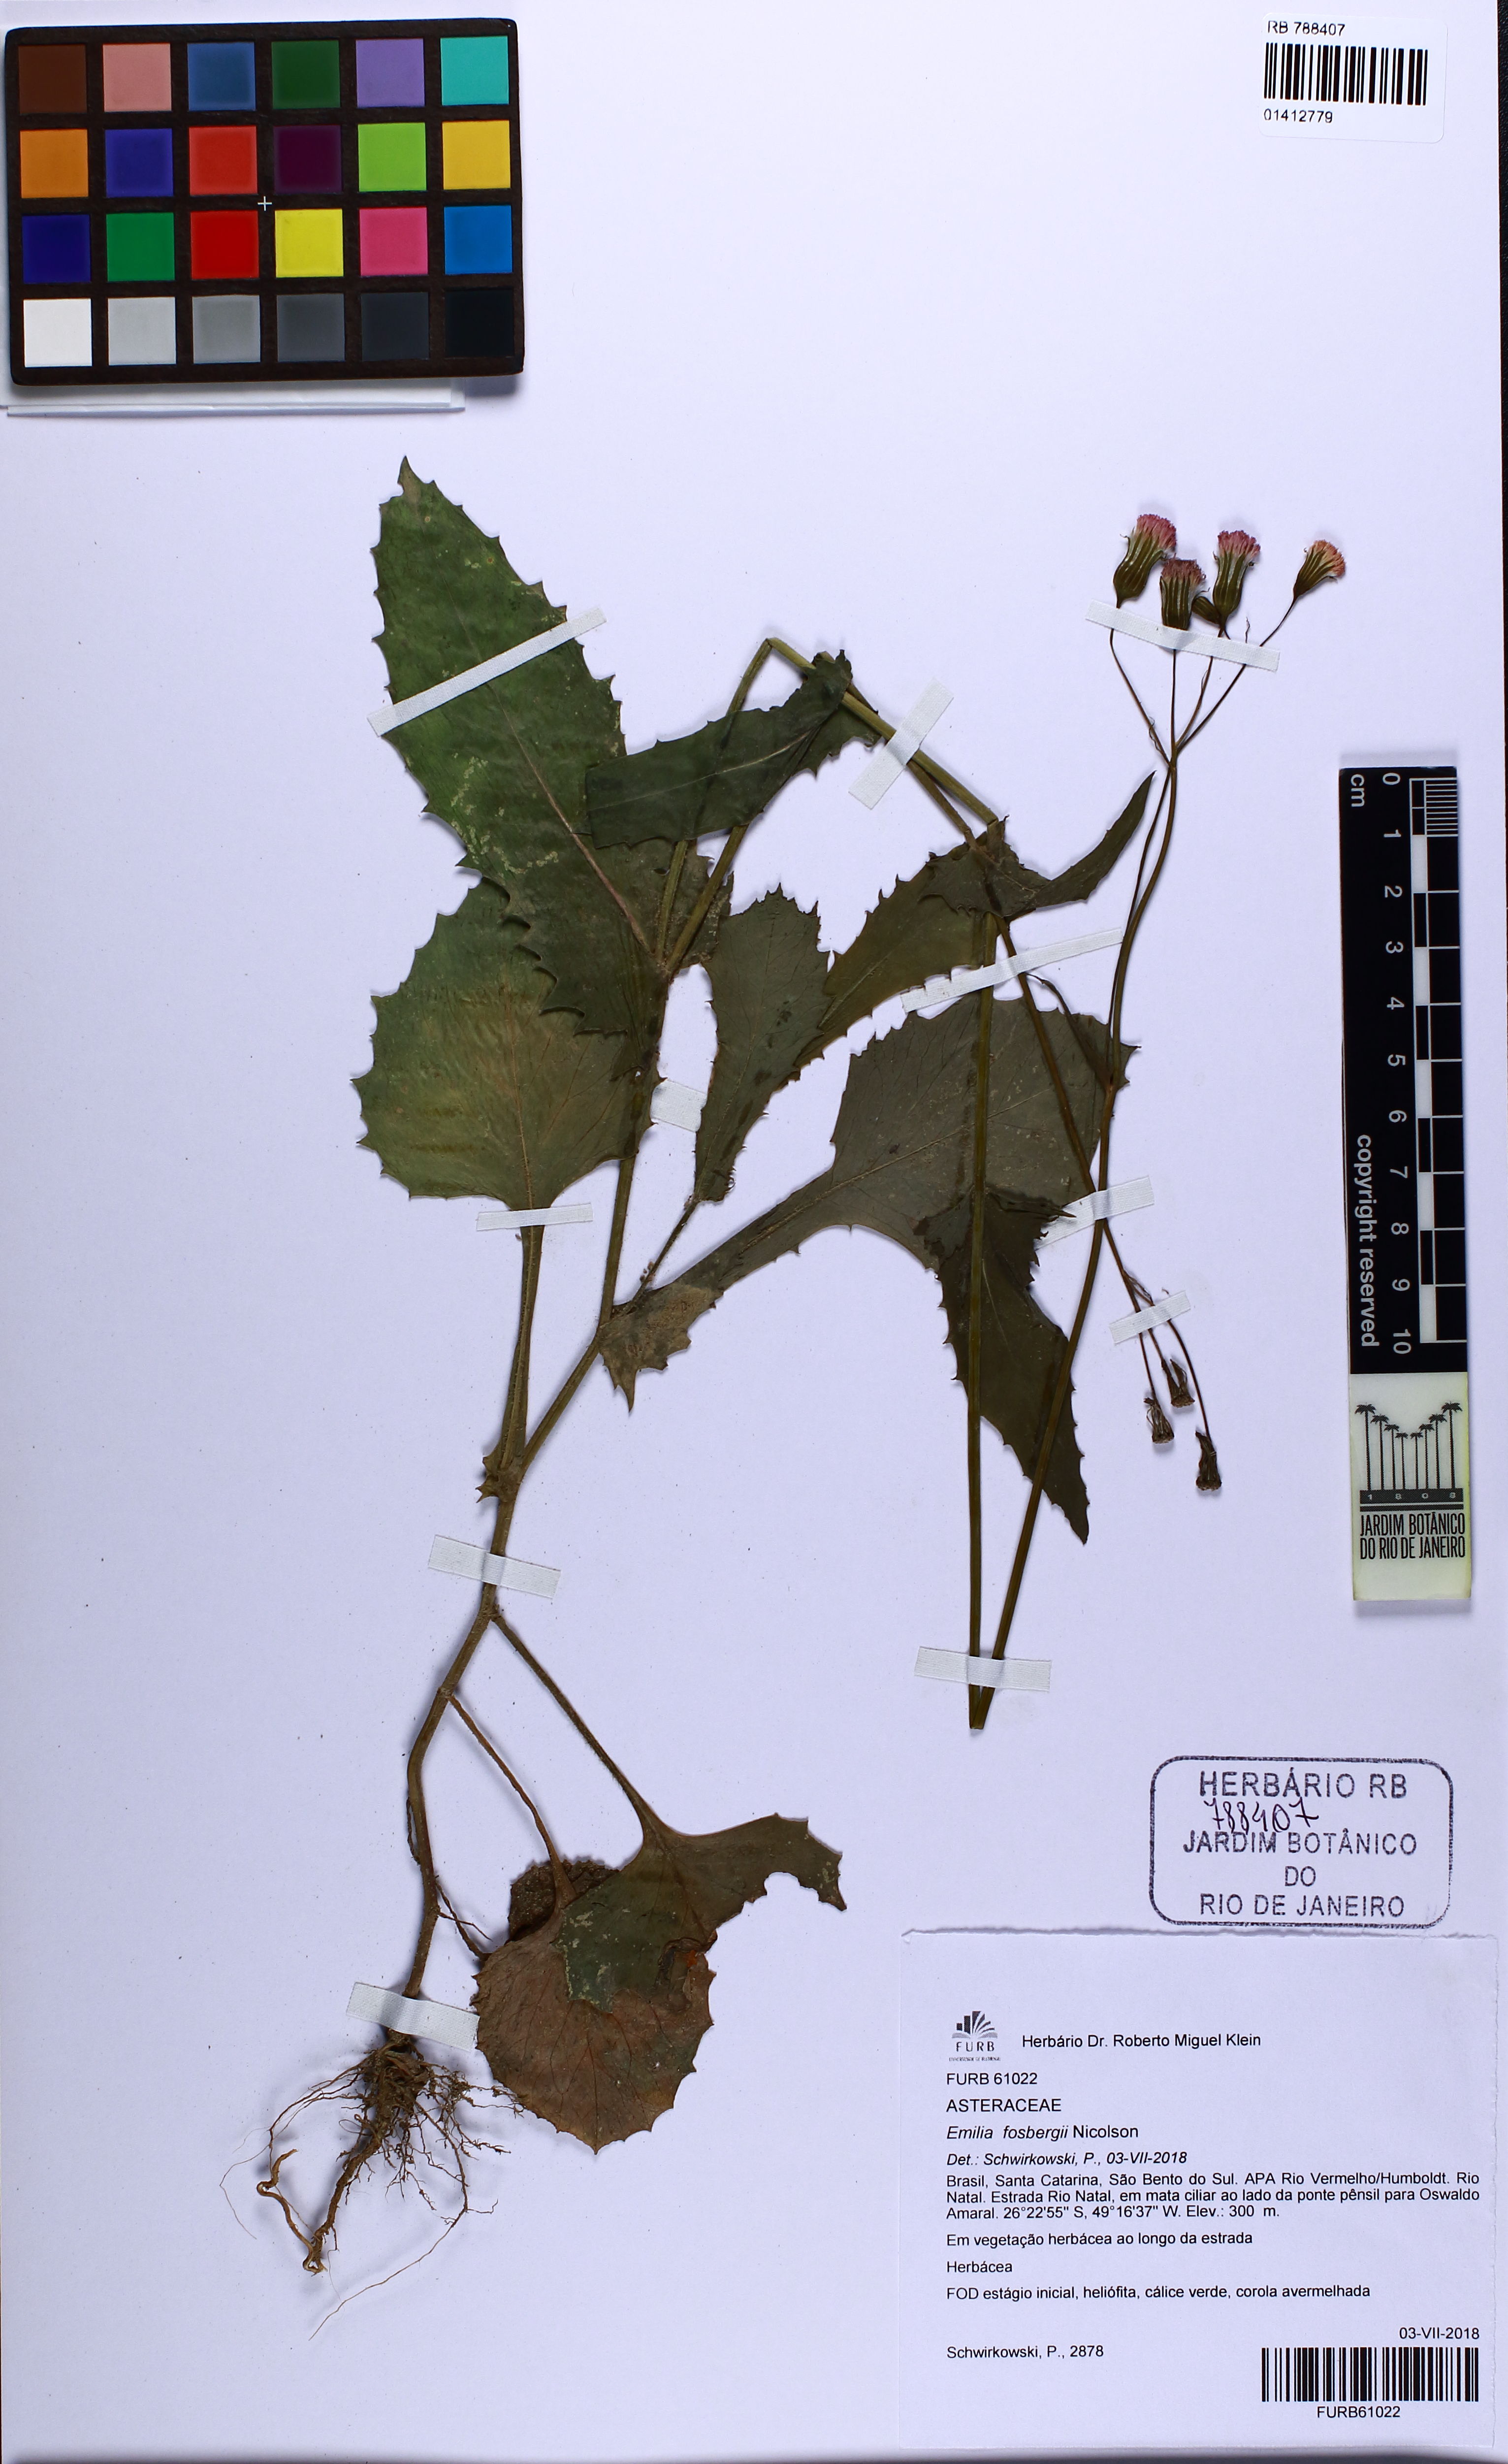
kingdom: Plantae
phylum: Tracheophyta
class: Magnoliopsida
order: Asterales
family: Asteraceae
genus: Emilia
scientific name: Emilia fosbergii
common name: Florida tasselflower
